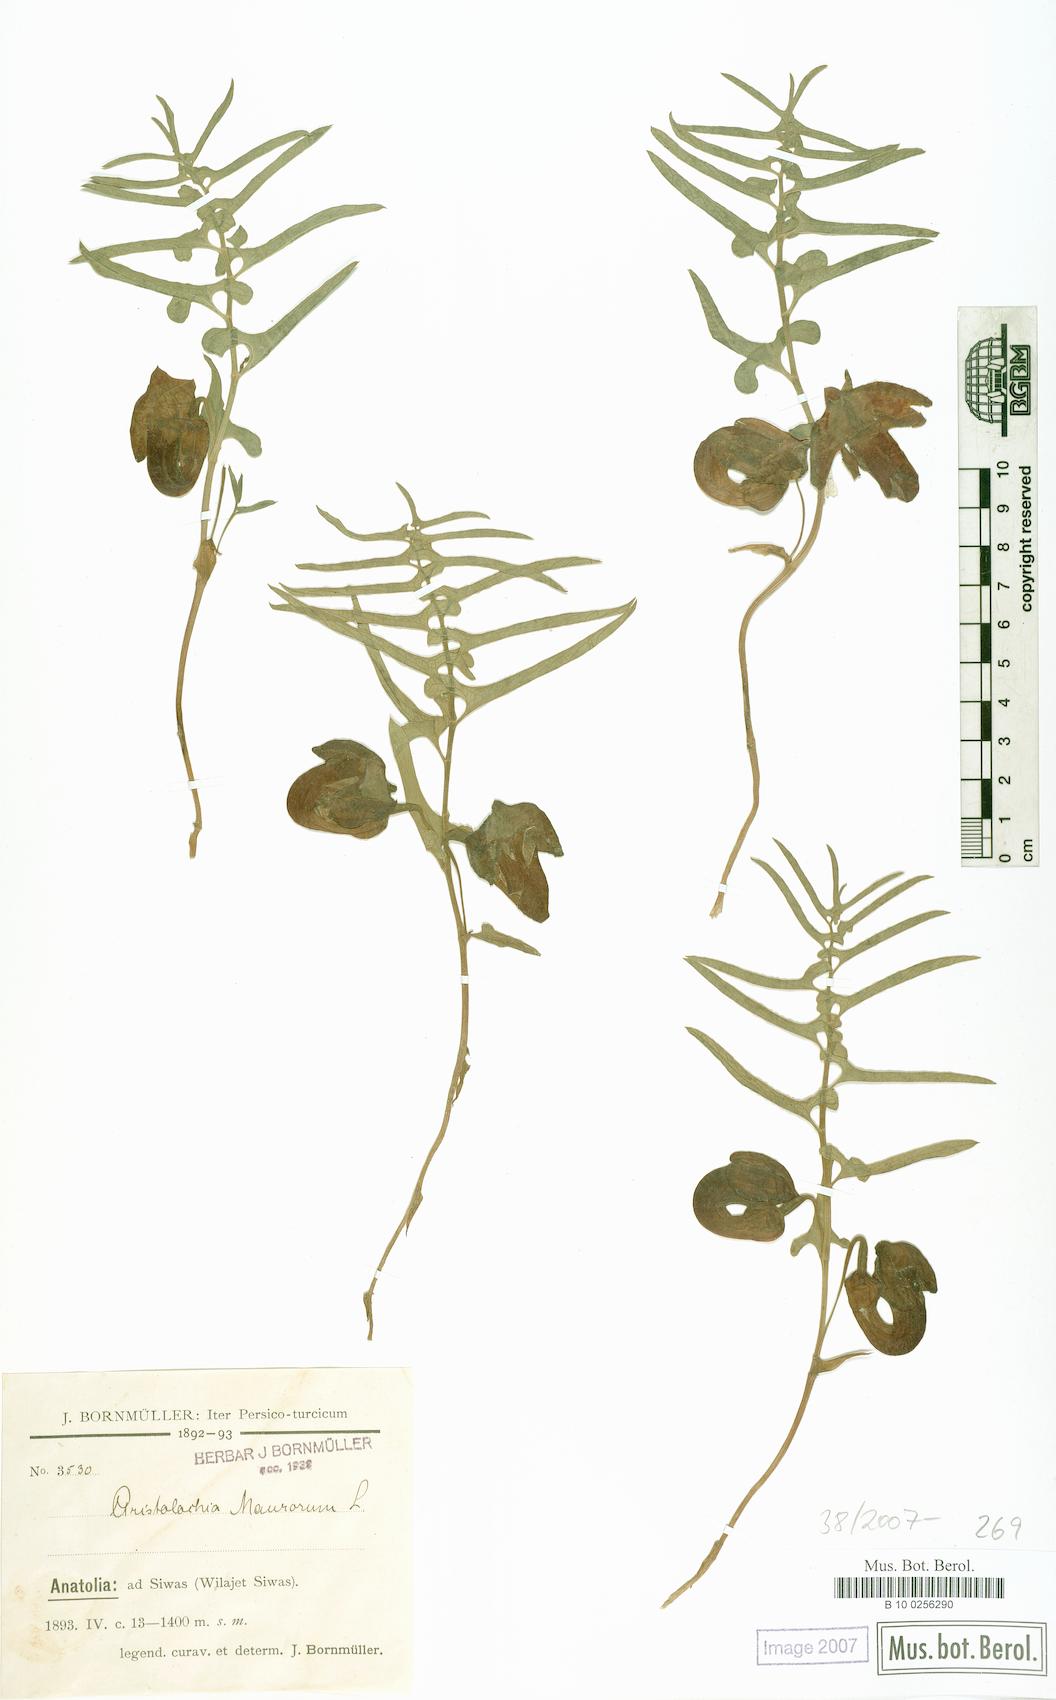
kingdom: Plantae
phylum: Tracheophyta
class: Magnoliopsida
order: Piperales
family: Aristolochiaceae
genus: Aristolochia
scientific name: Aristolochia maurorum
